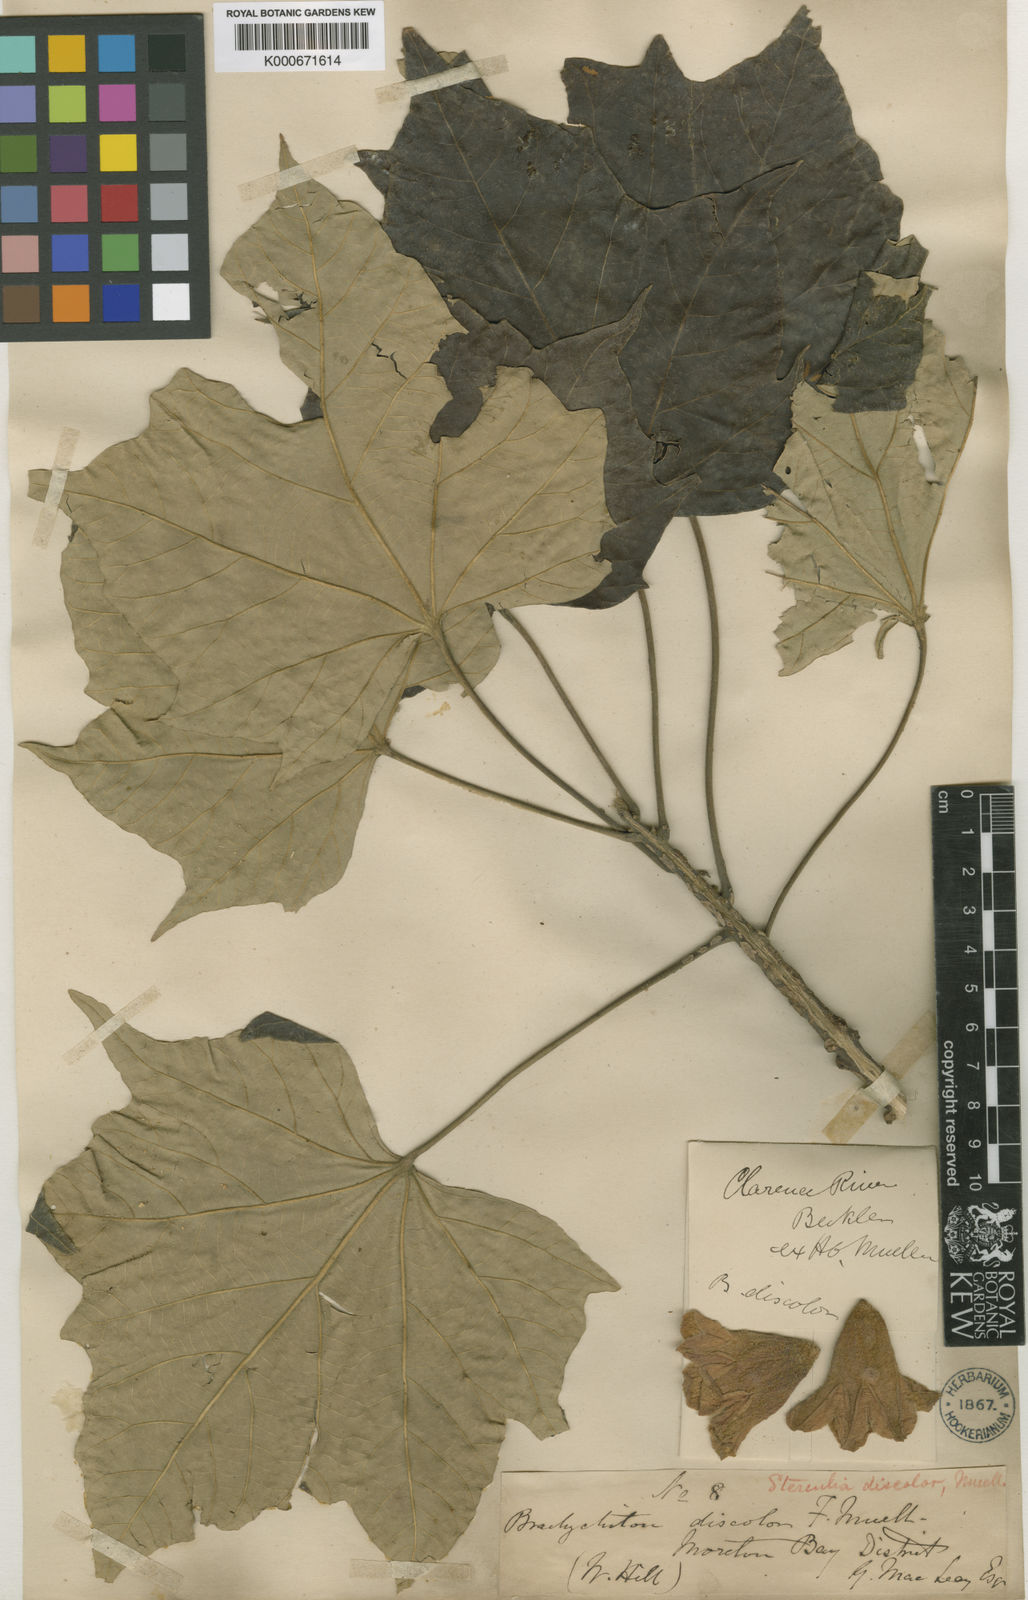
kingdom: Plantae
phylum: Tracheophyta
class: Magnoliopsida
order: Malvales
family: Malvaceae
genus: Brachychiton
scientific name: Brachychiton discolor
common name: Queensland lacebark
